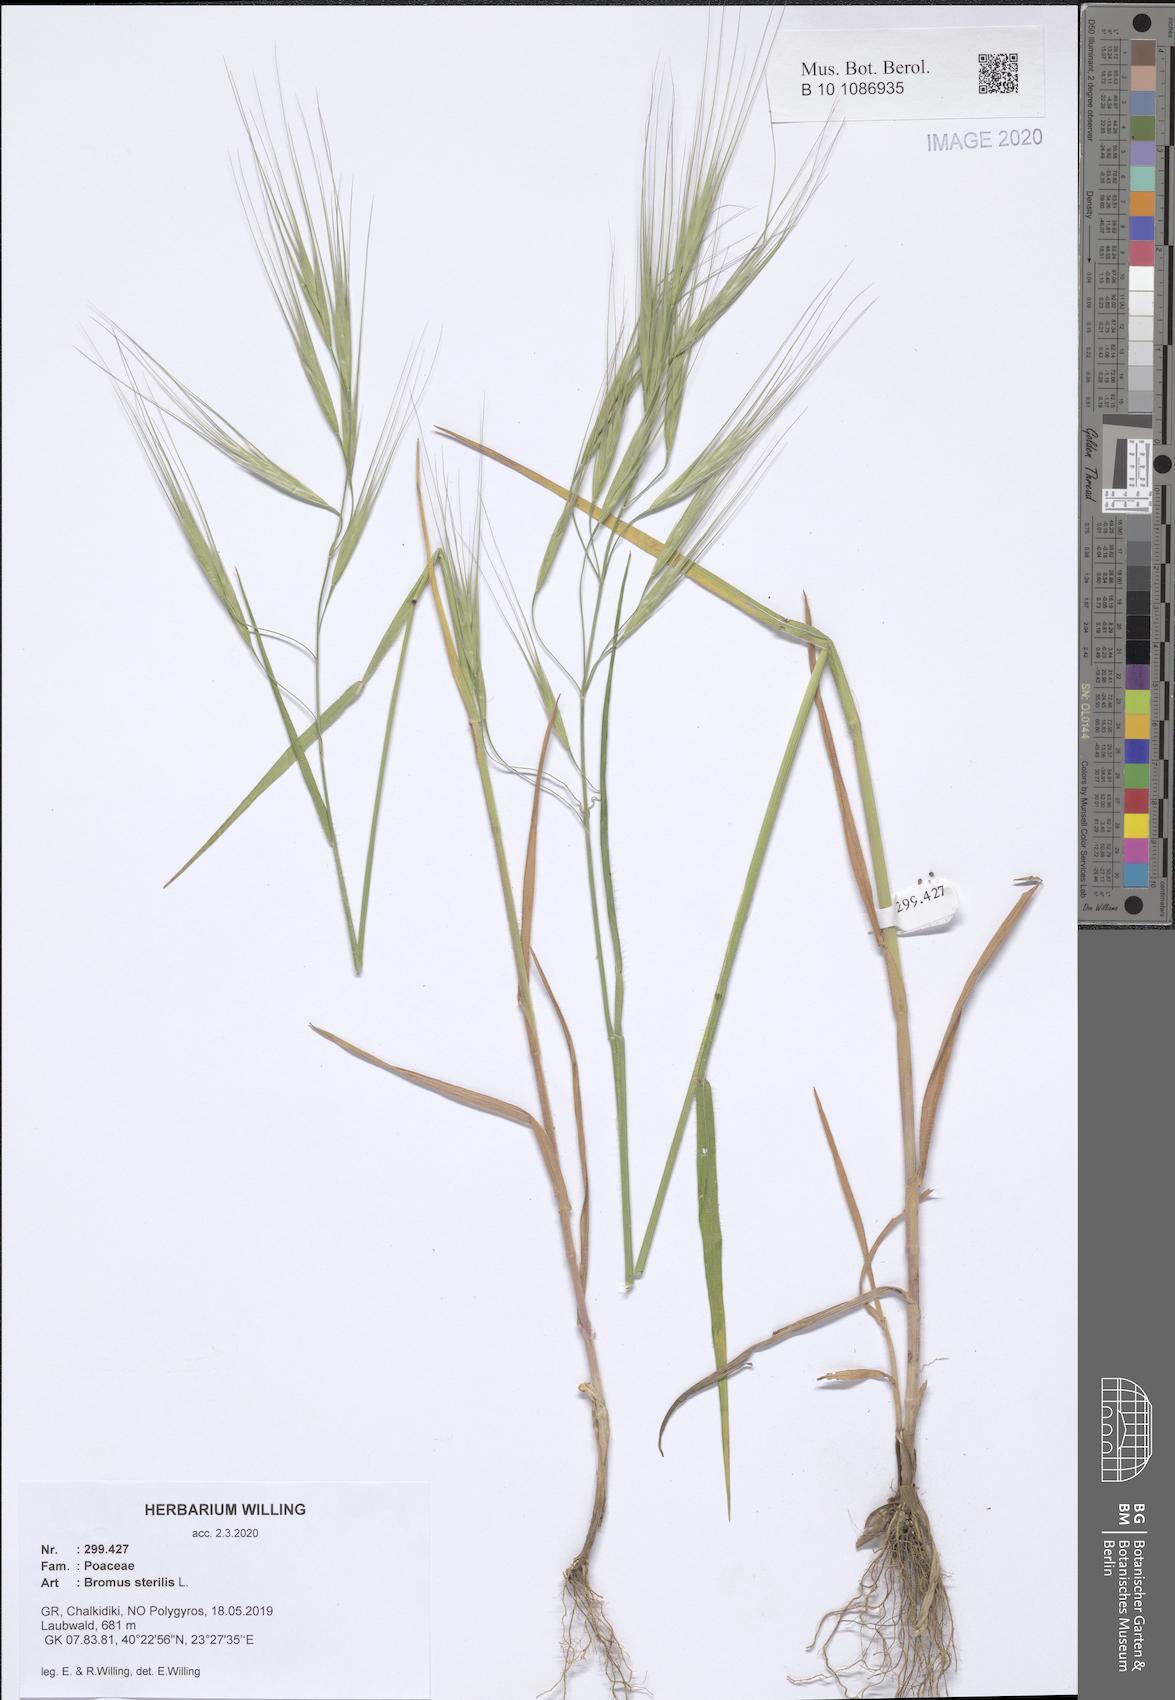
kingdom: Plantae
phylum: Tracheophyta
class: Liliopsida
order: Poales
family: Poaceae
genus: Bromus
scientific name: Bromus sterilis
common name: Poverty brome
